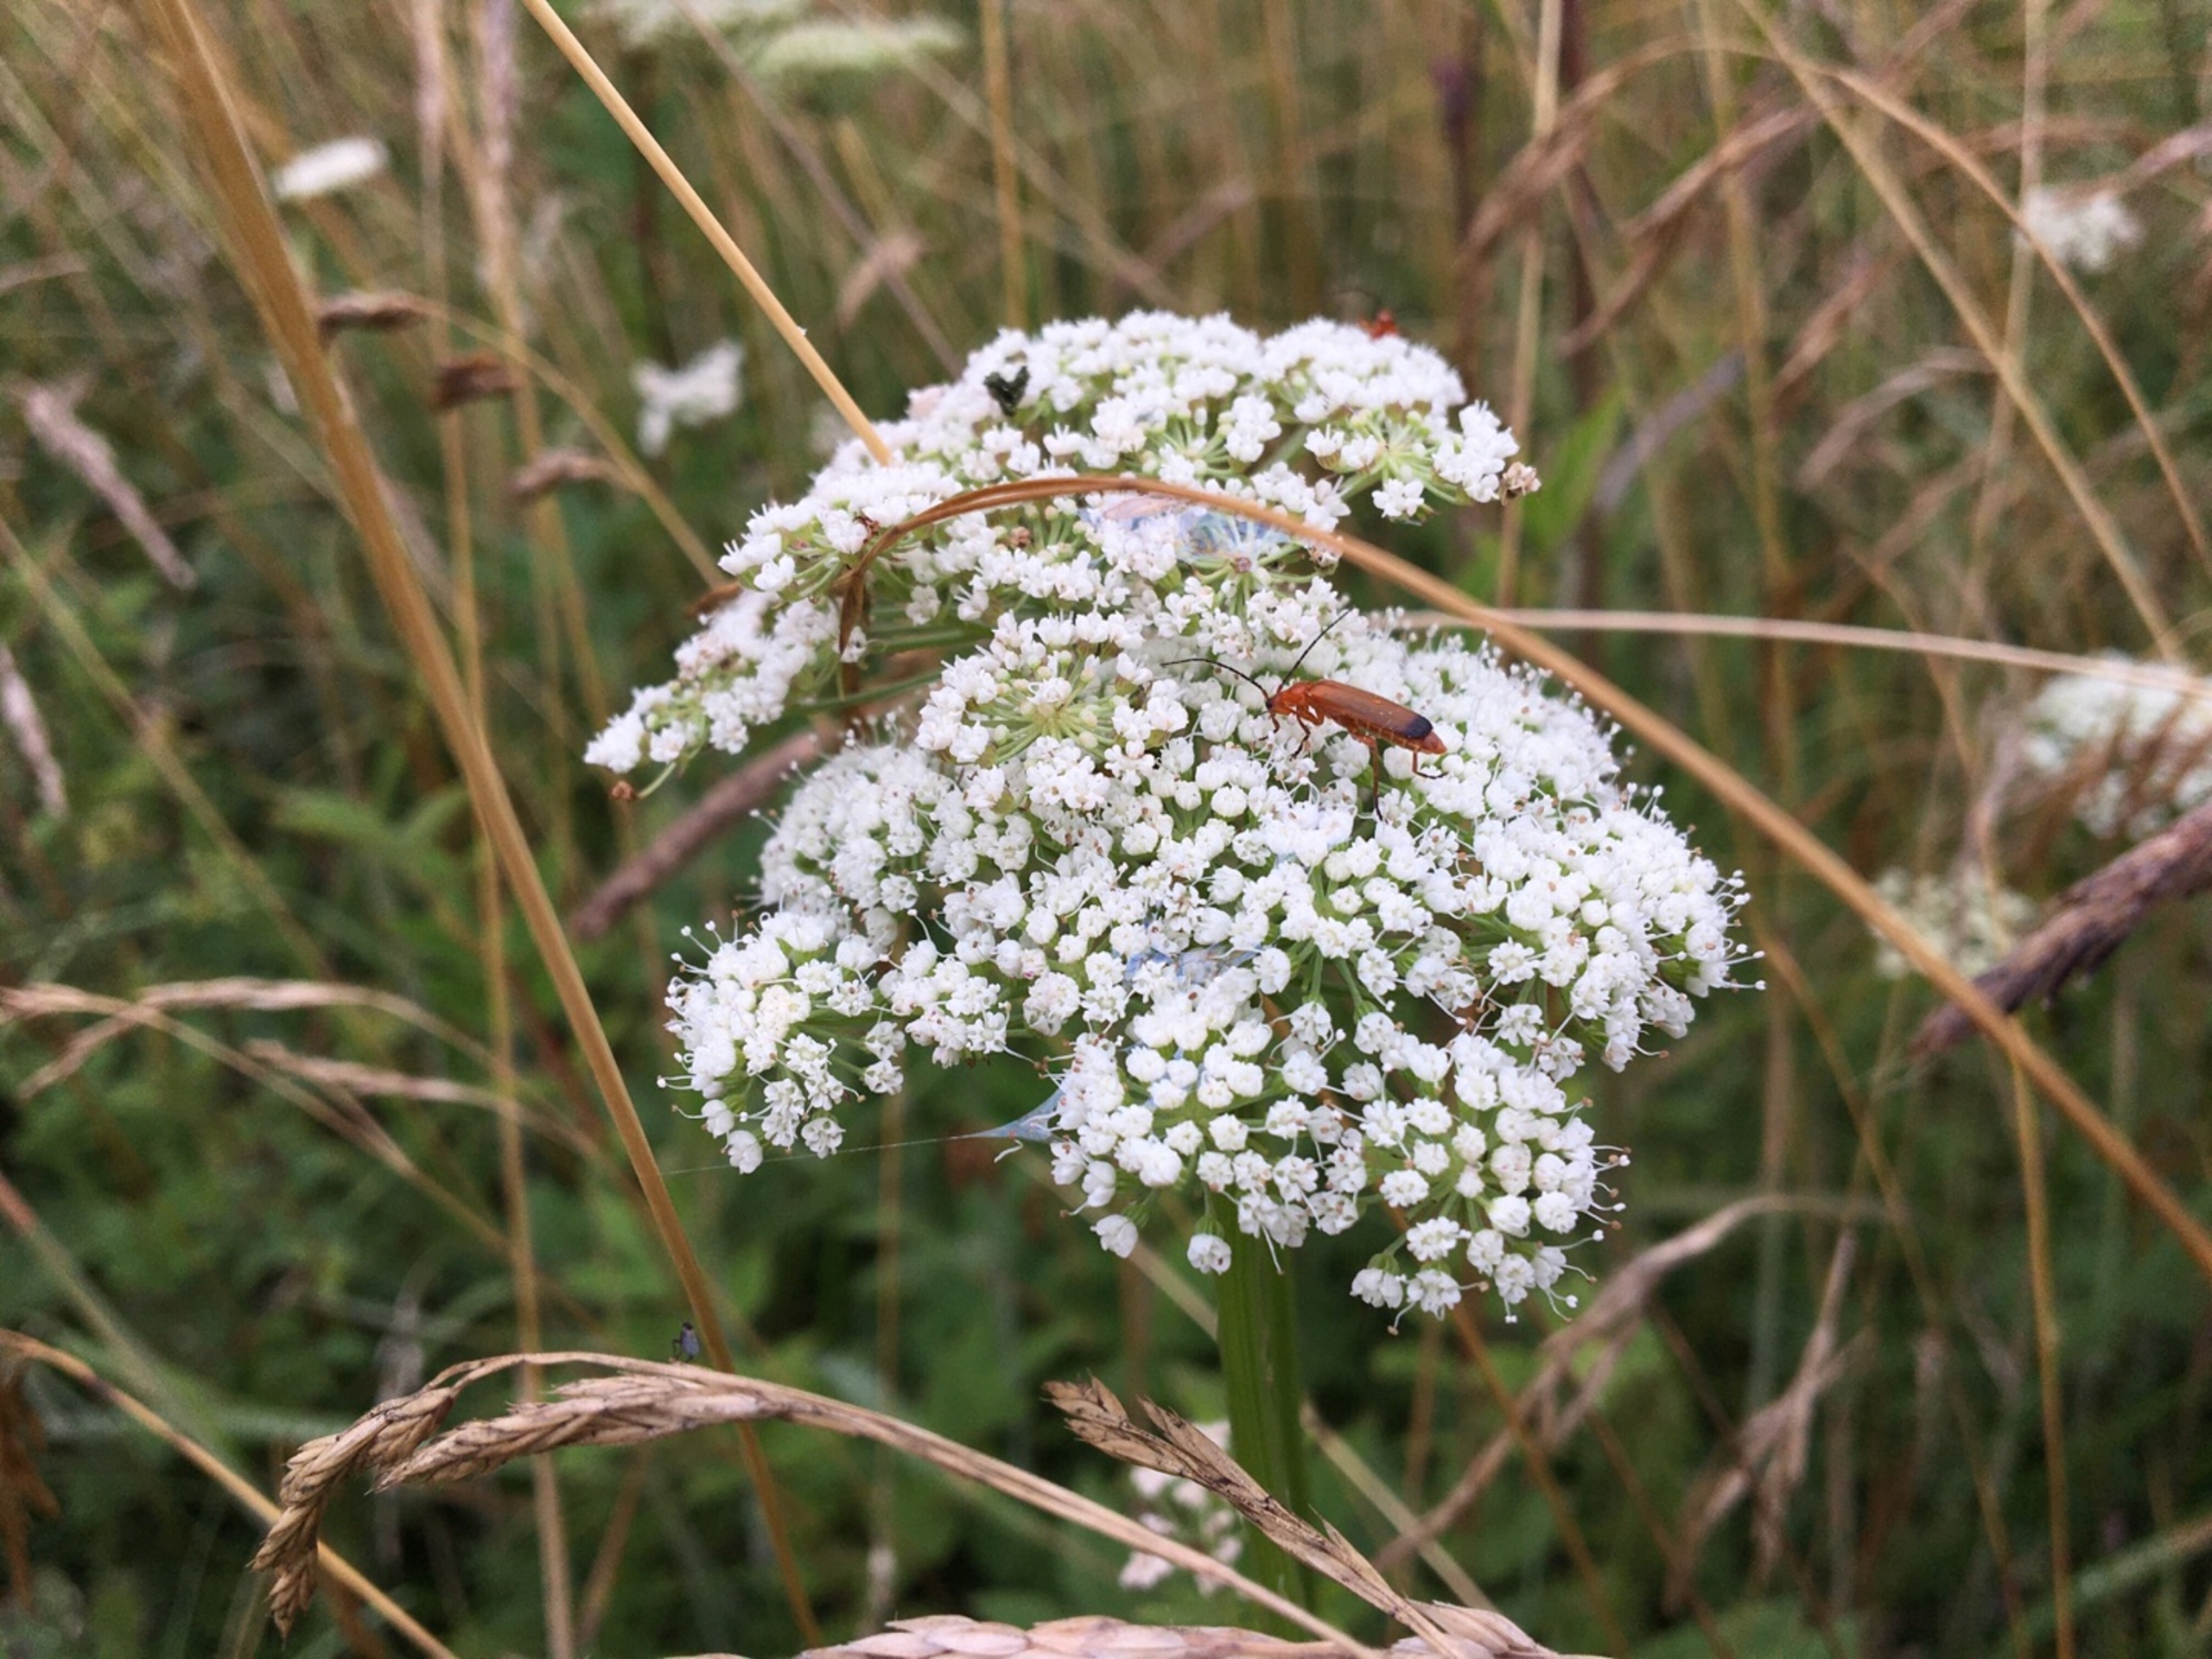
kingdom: Plantae
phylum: Tracheophyta
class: Magnoliopsida
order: Apiales
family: Apiaceae
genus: Selinum
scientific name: Selinum carvifolia
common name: Seline
